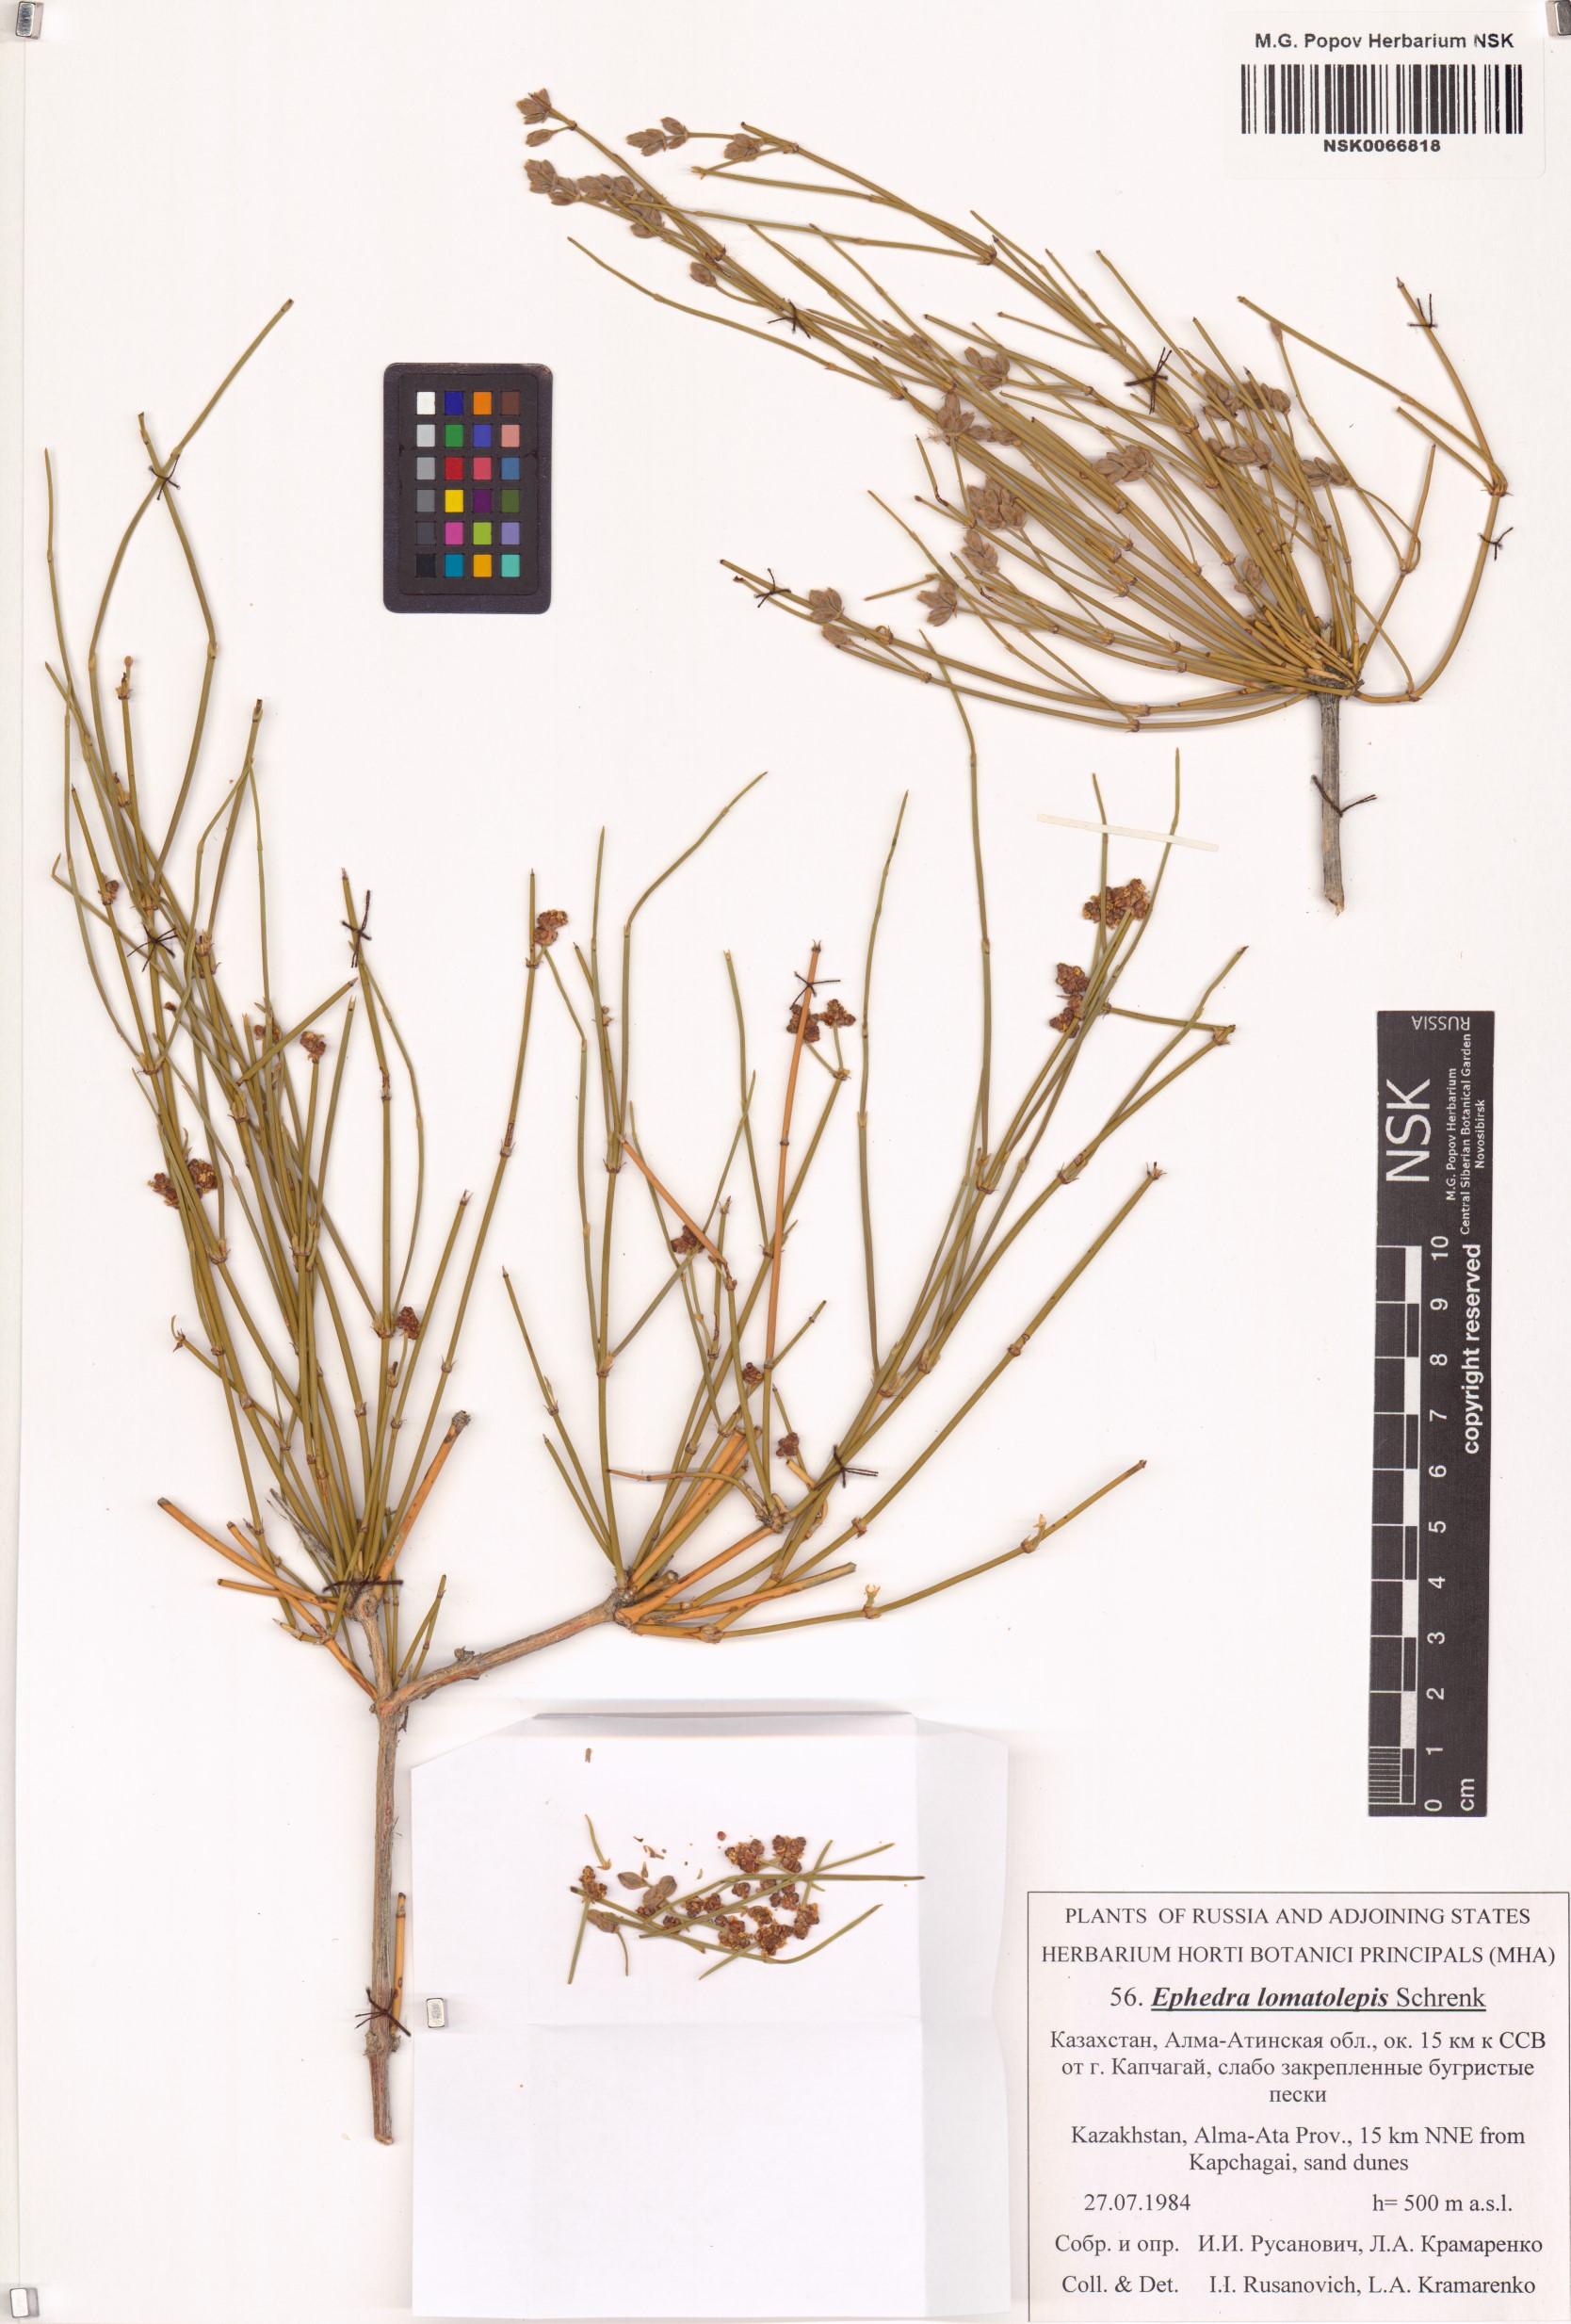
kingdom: Plantae
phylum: Tracheophyta
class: Gnetopsida
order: Ephedrales
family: Ephedraceae
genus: Ephedra
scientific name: Ephedra lomatolepis
